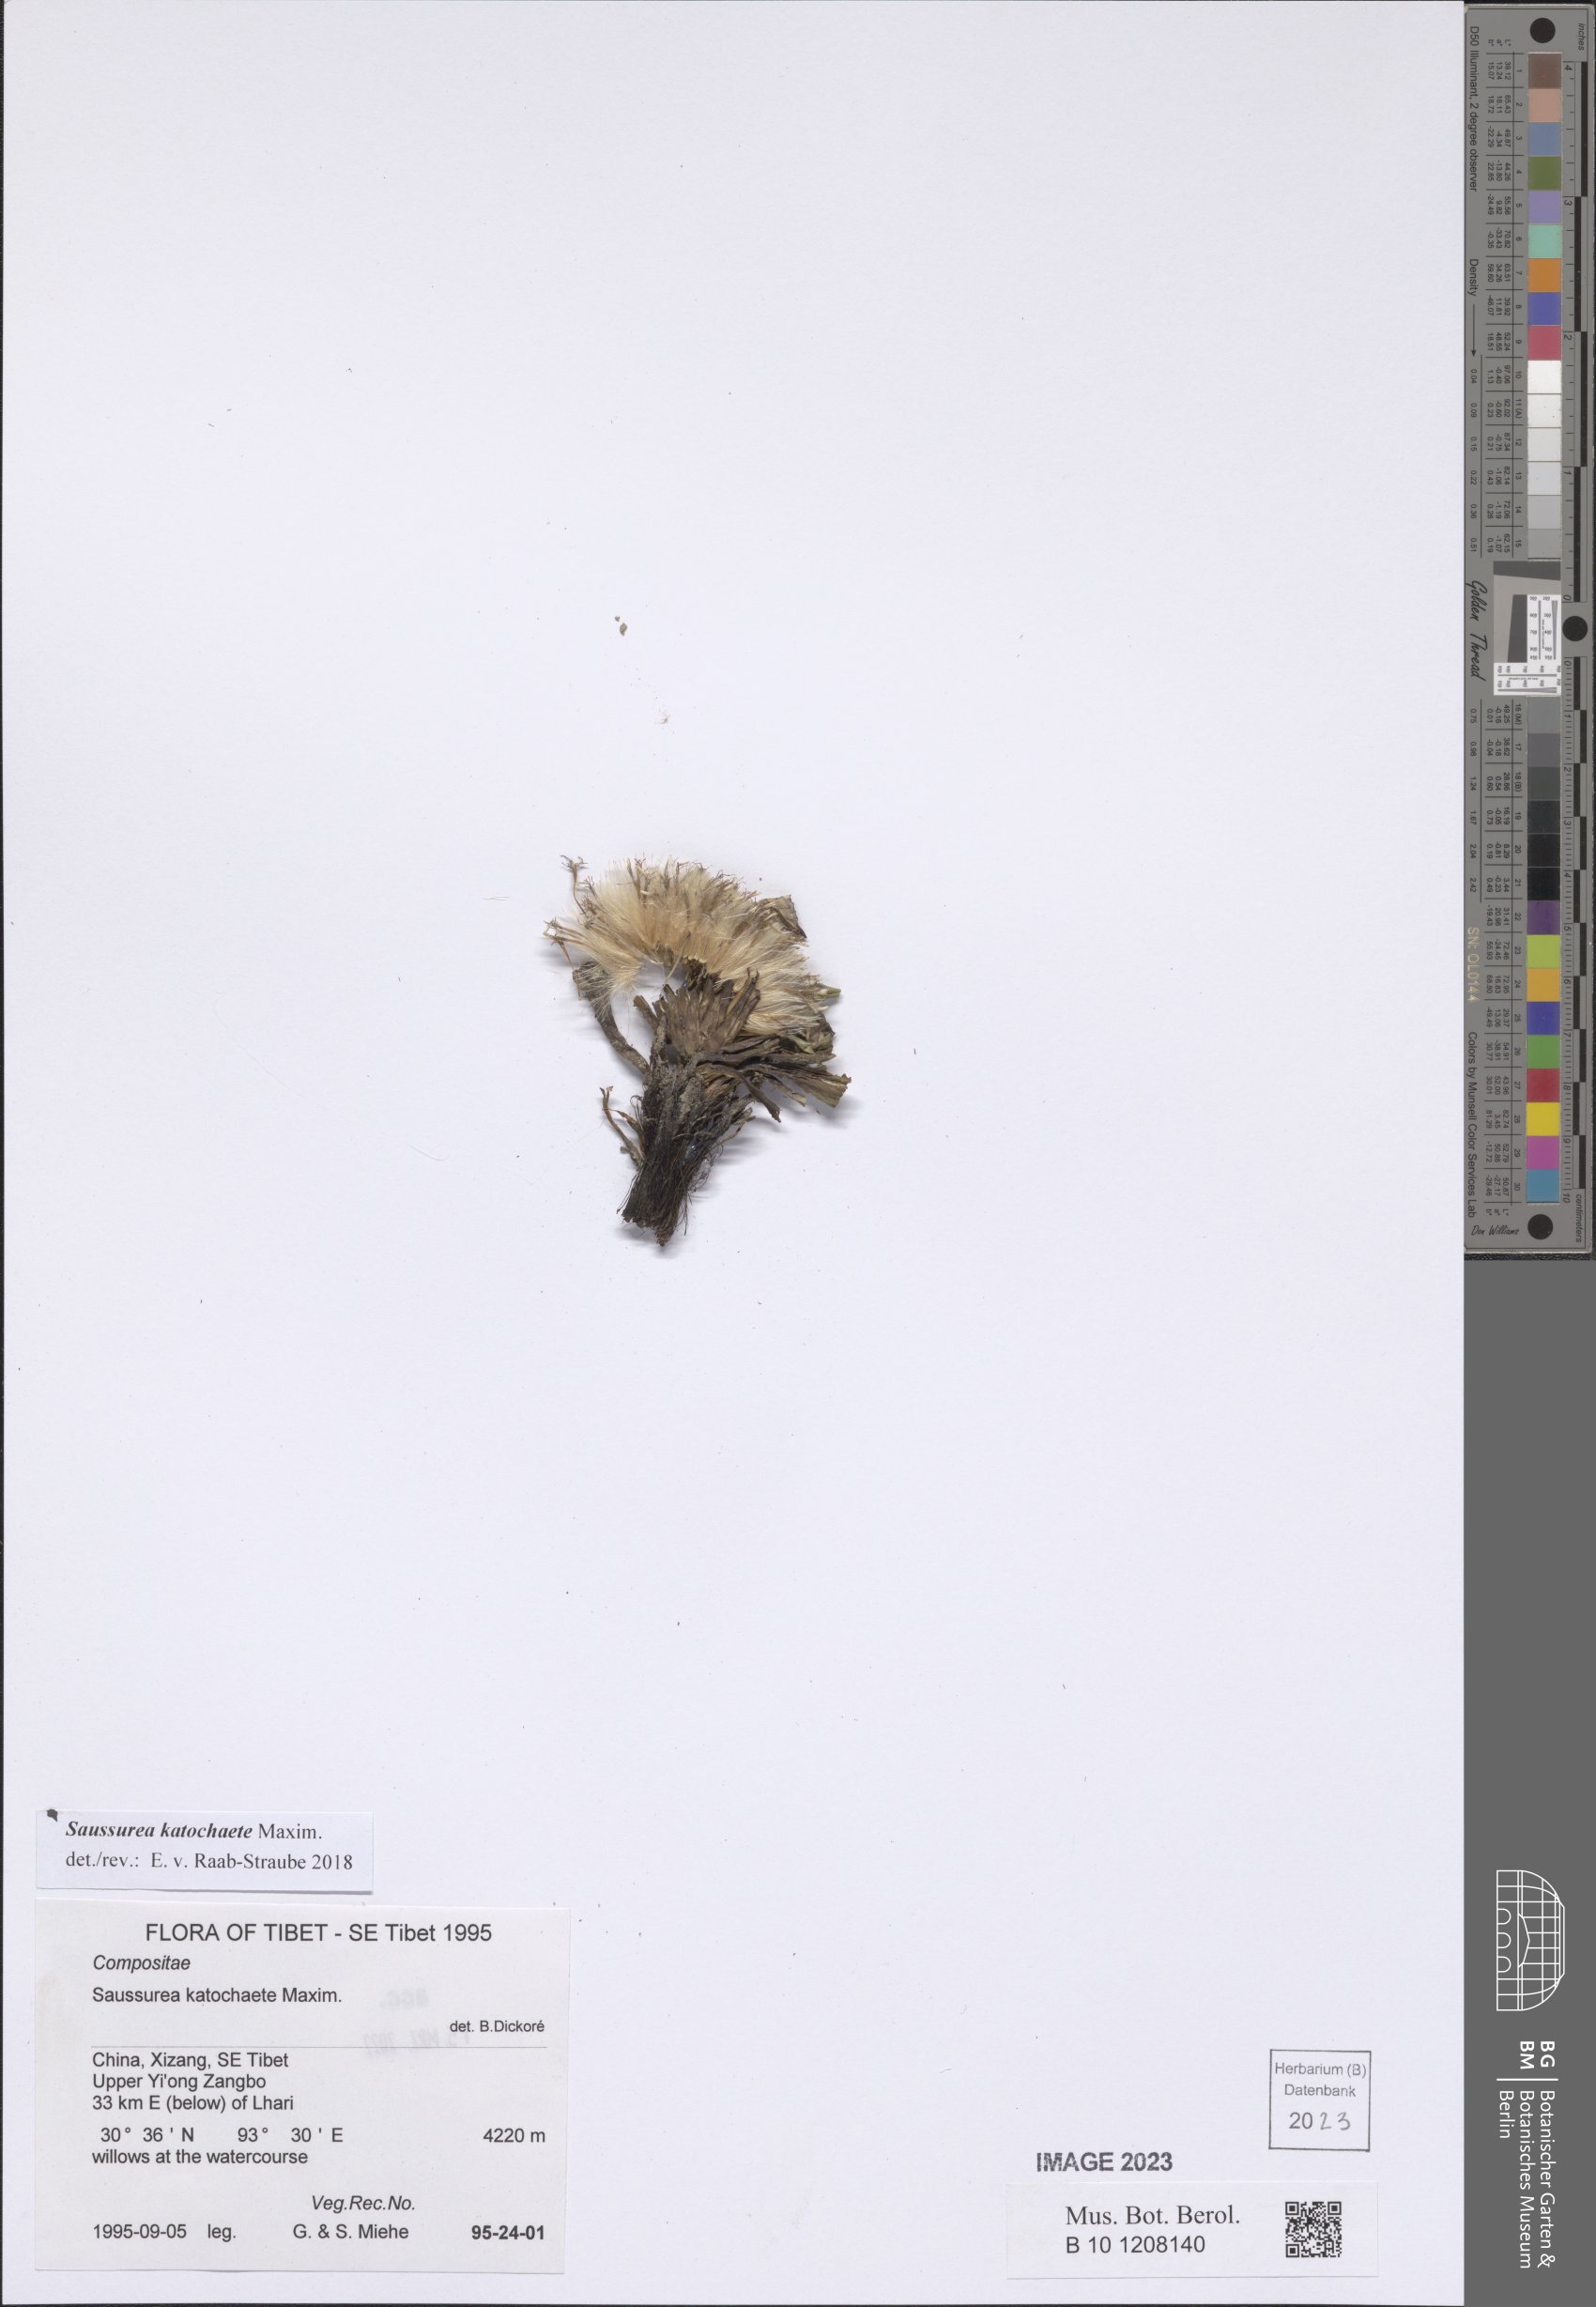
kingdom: Plantae
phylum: Tracheophyta
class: Magnoliopsida
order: Asterales
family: Asteraceae
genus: Saussurea
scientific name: Saussurea katochaete
